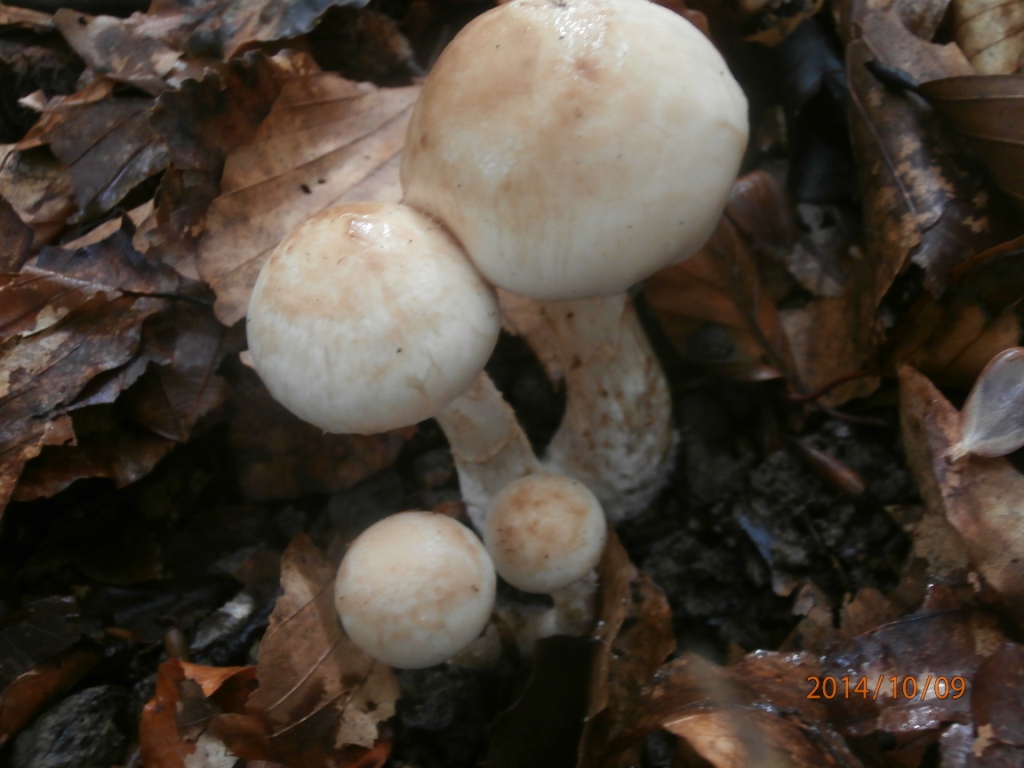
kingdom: Fungi
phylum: Basidiomycota
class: Agaricomycetes
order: Agaricales
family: Hymenogastraceae
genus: Hebeloma
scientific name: Hebeloma radicosum
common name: pælerods-tåreblad
